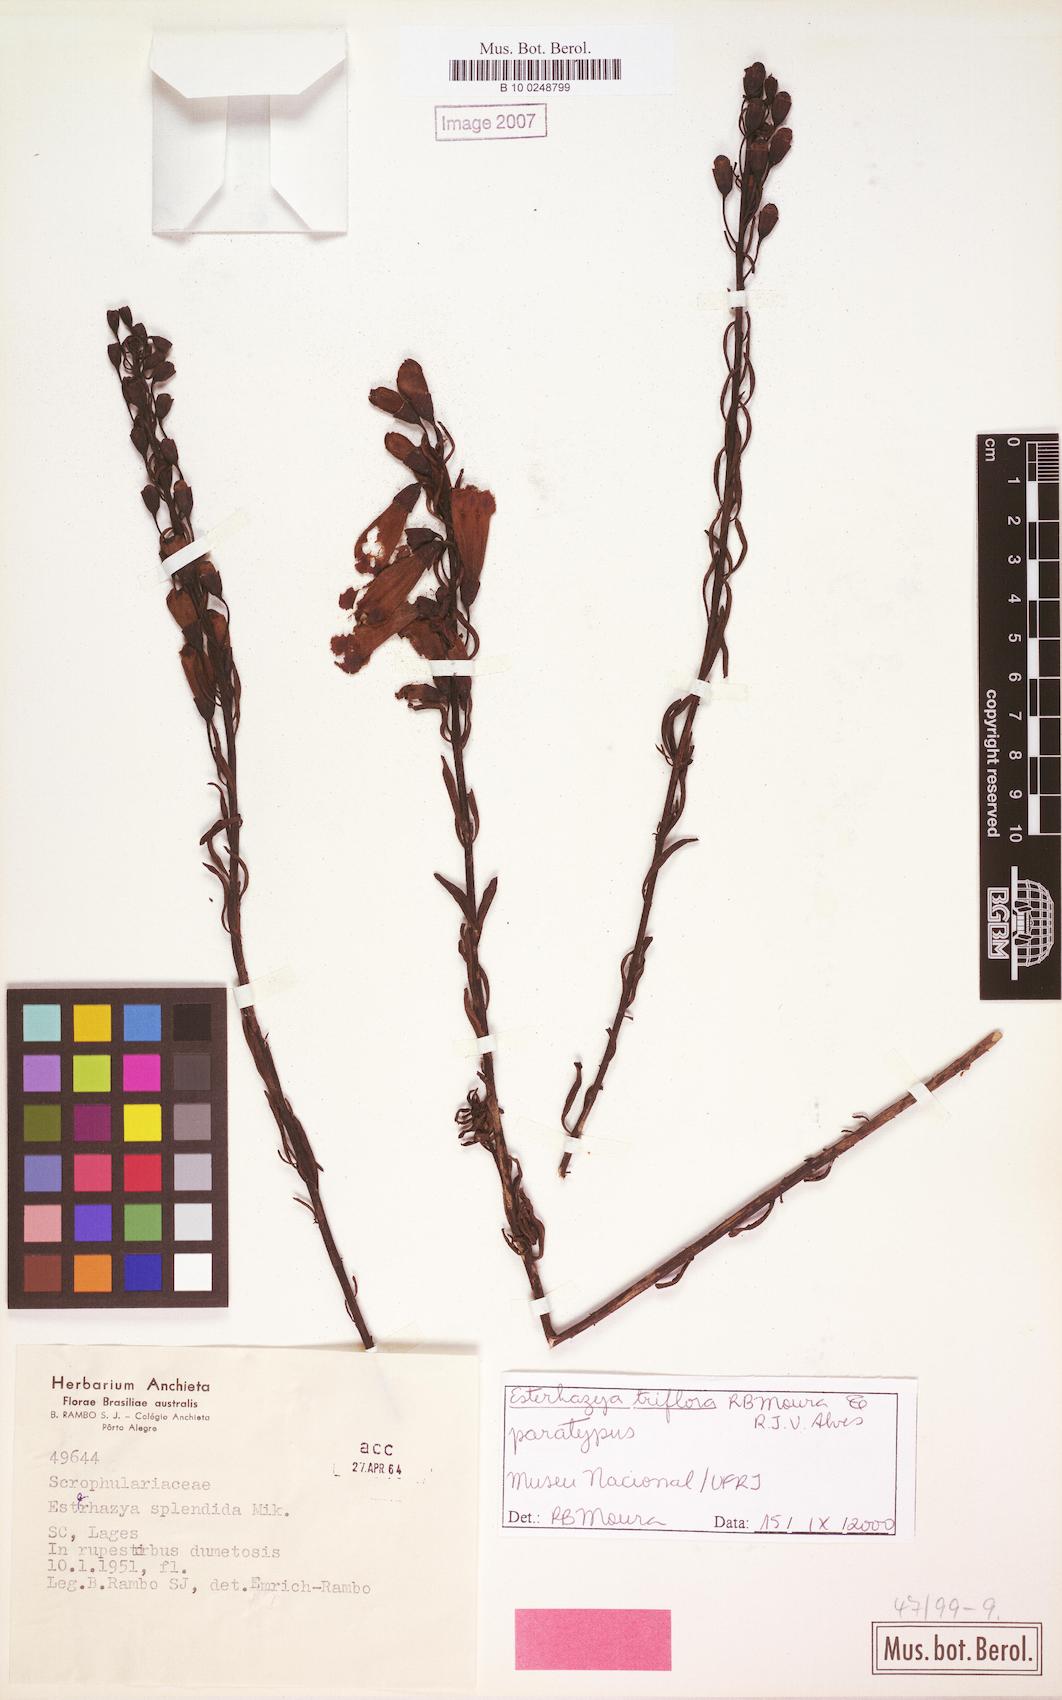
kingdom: Plantae
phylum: Tracheophyta
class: Magnoliopsida
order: Lamiales
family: Orobanchaceae
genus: Esterhazya
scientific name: Esterhazya triflora
